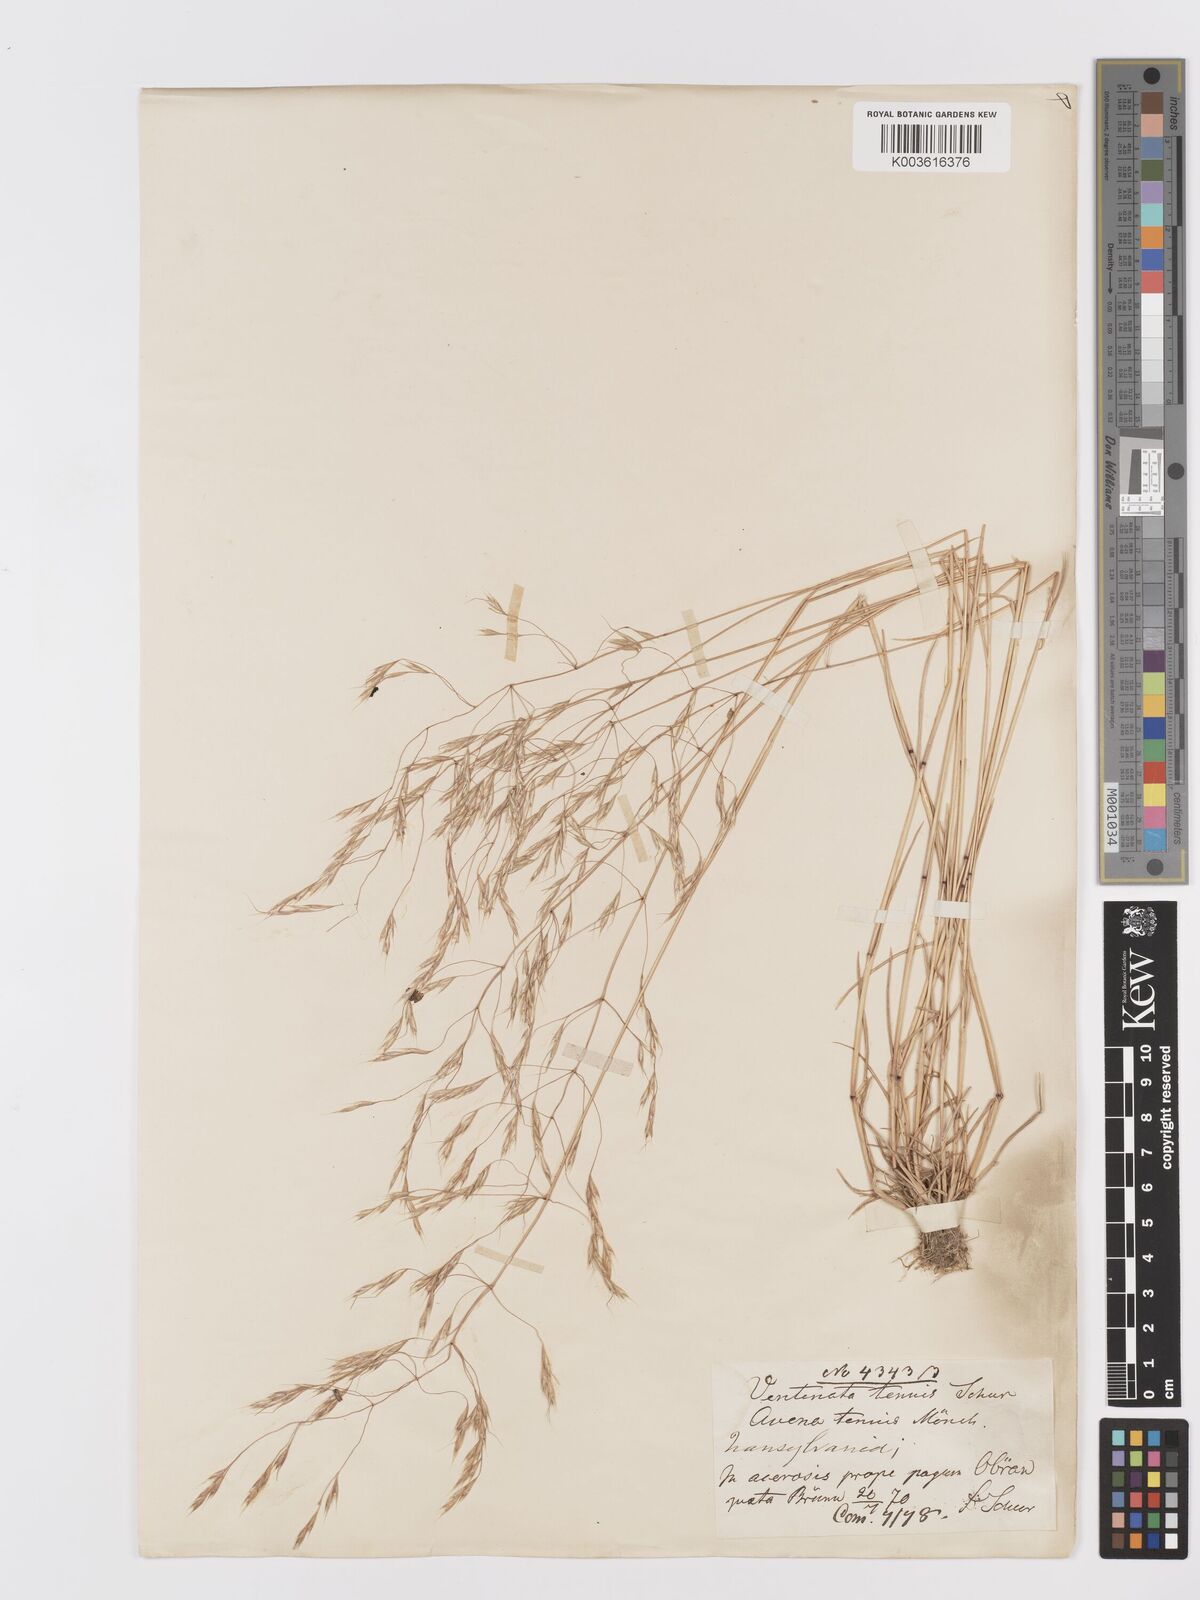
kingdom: Plantae
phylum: Tracheophyta
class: Liliopsida
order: Poales
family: Poaceae
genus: Ventenata
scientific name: Ventenata dubia
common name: North africa grass
